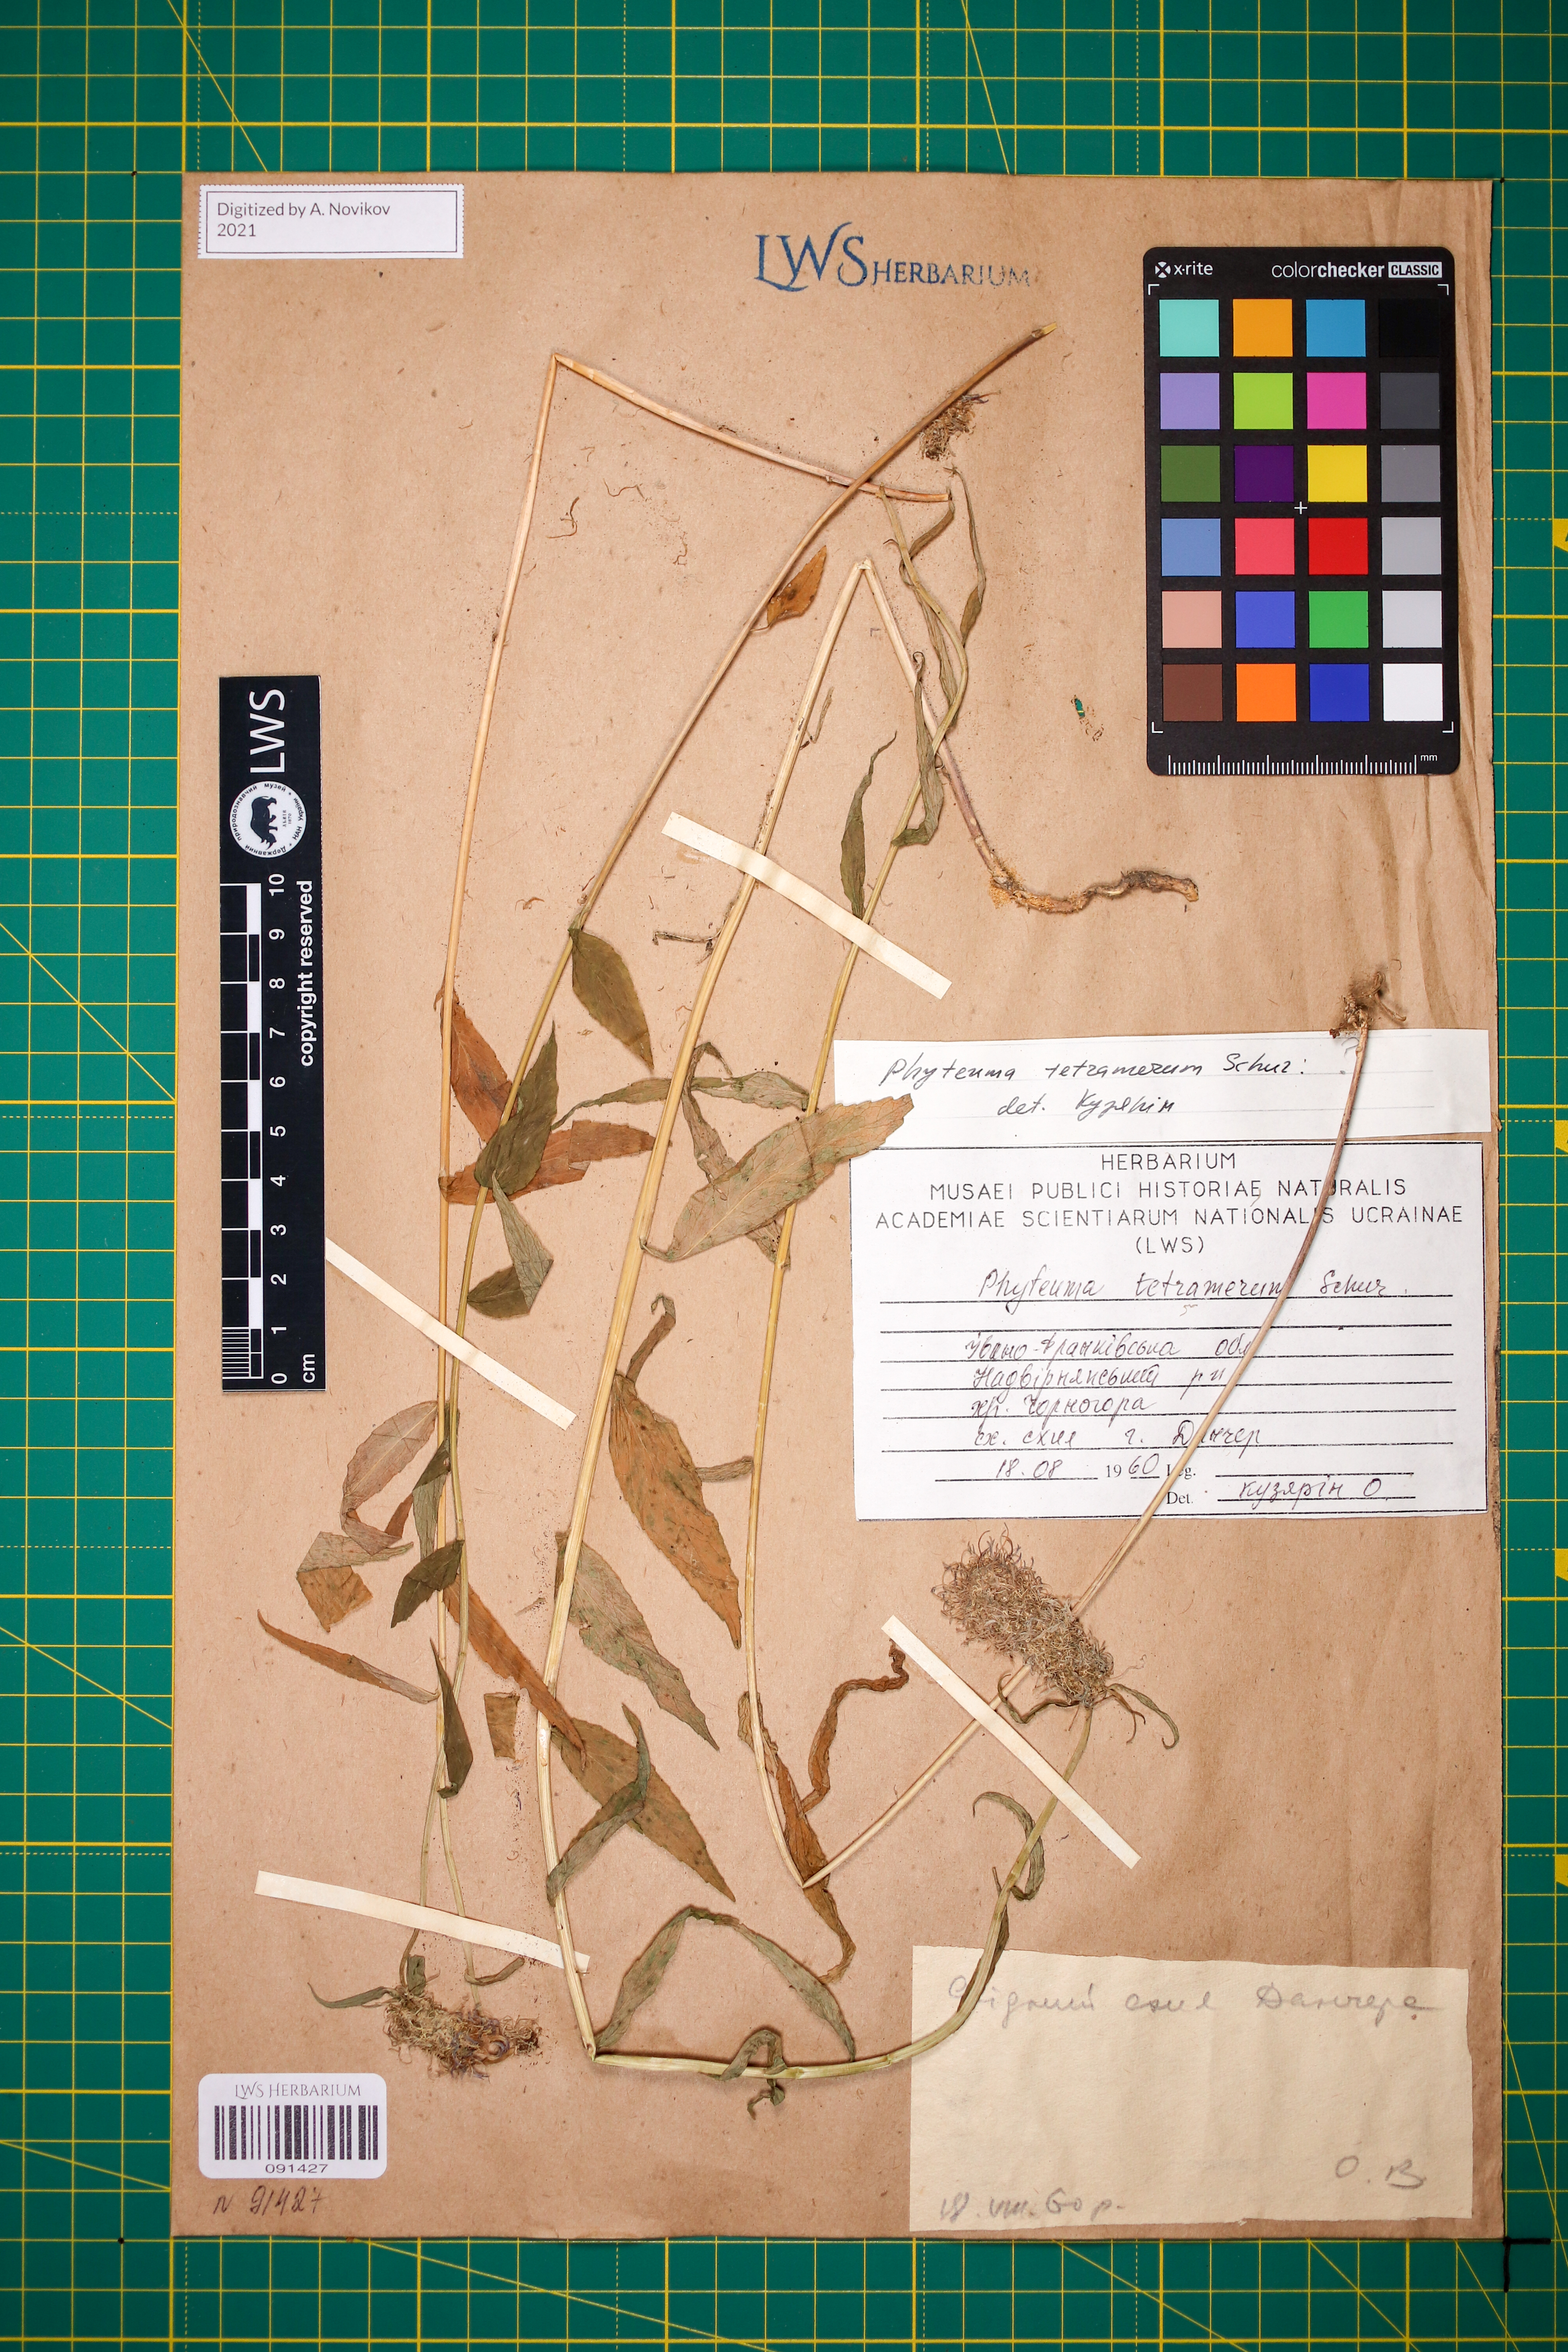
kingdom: Plantae
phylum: Tracheophyta
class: Magnoliopsida
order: Asterales
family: Campanulaceae
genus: Phyteuma
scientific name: Phyteuma tetramerum
